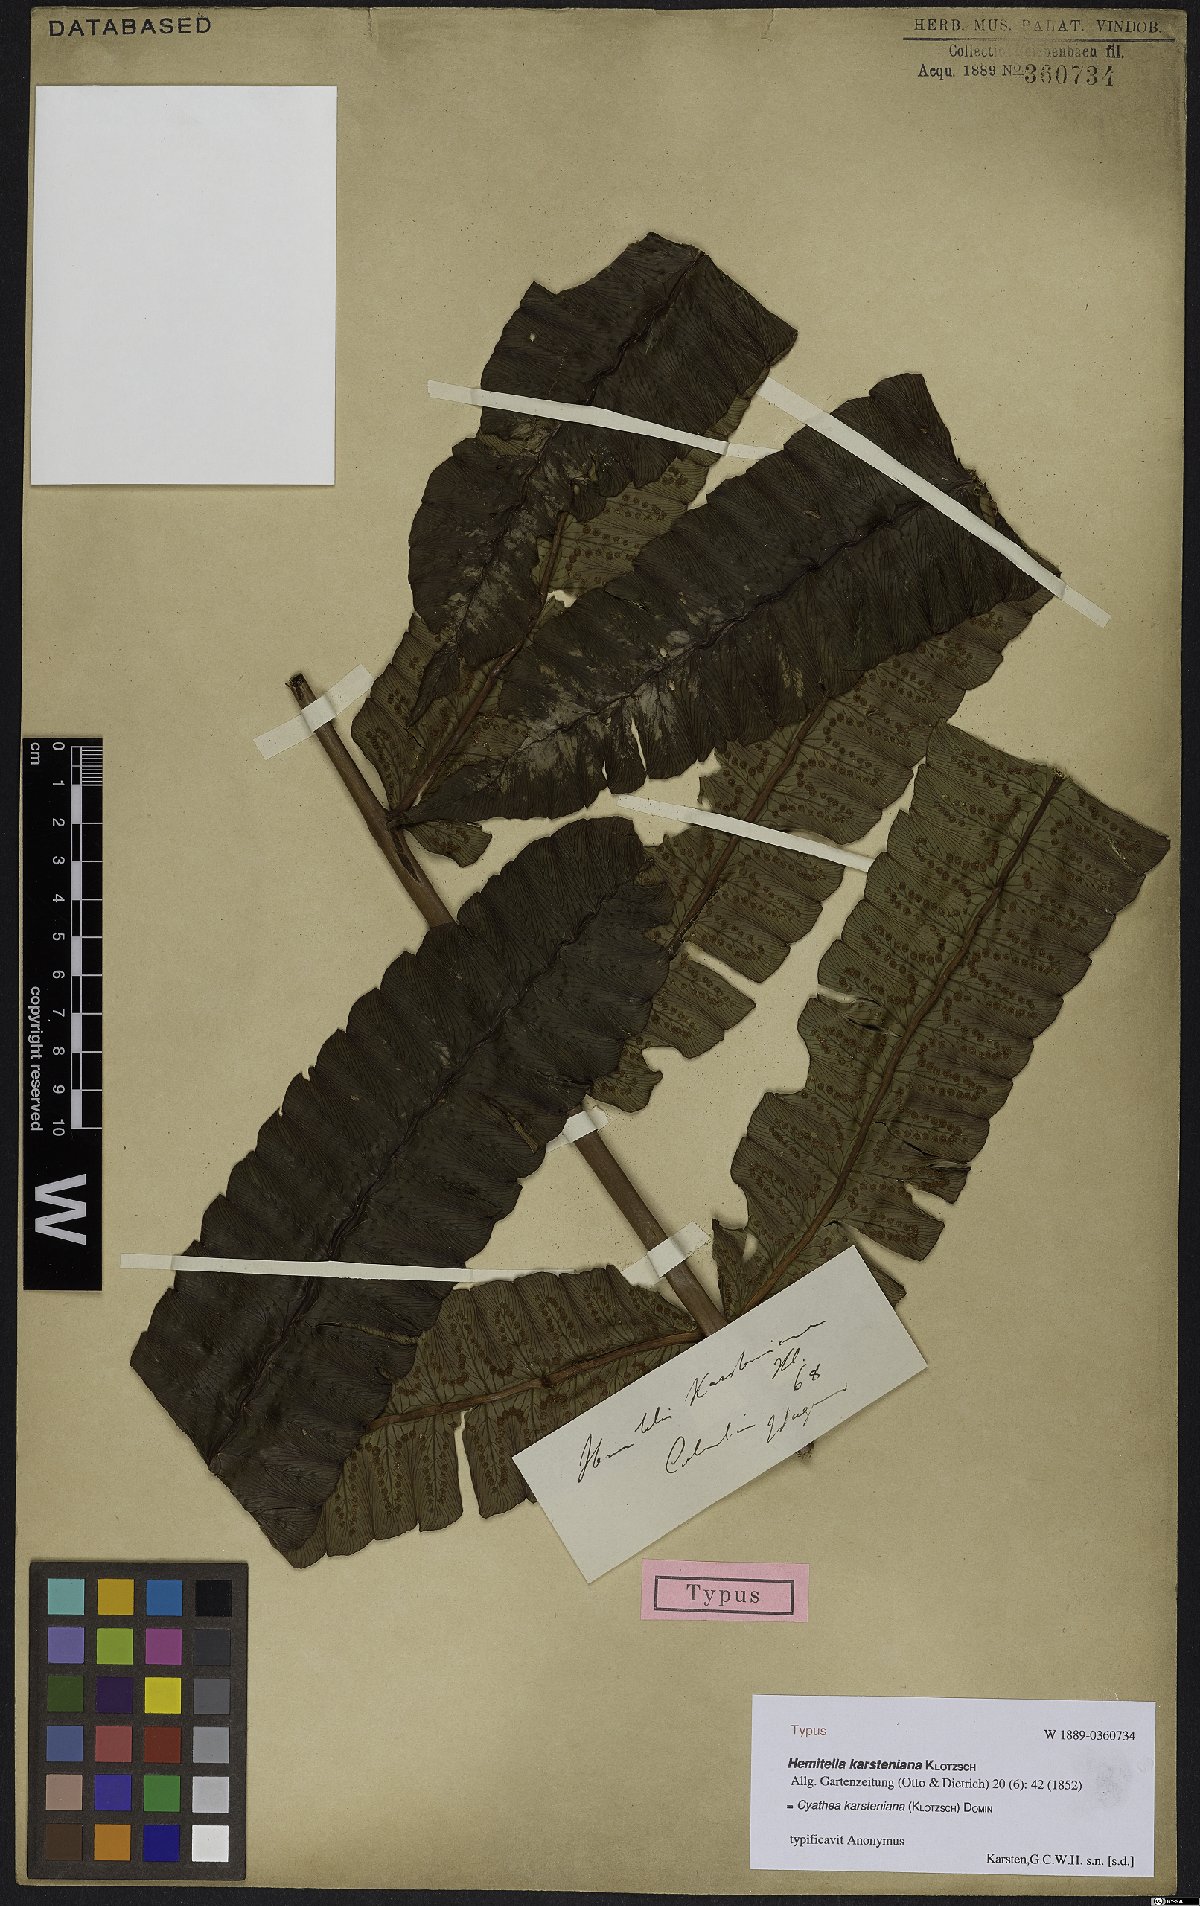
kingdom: Plantae
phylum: Tracheophyta
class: Polypodiopsida
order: Cyatheales
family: Cyatheaceae
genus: Cyathea
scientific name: Cyathea karsteniana
